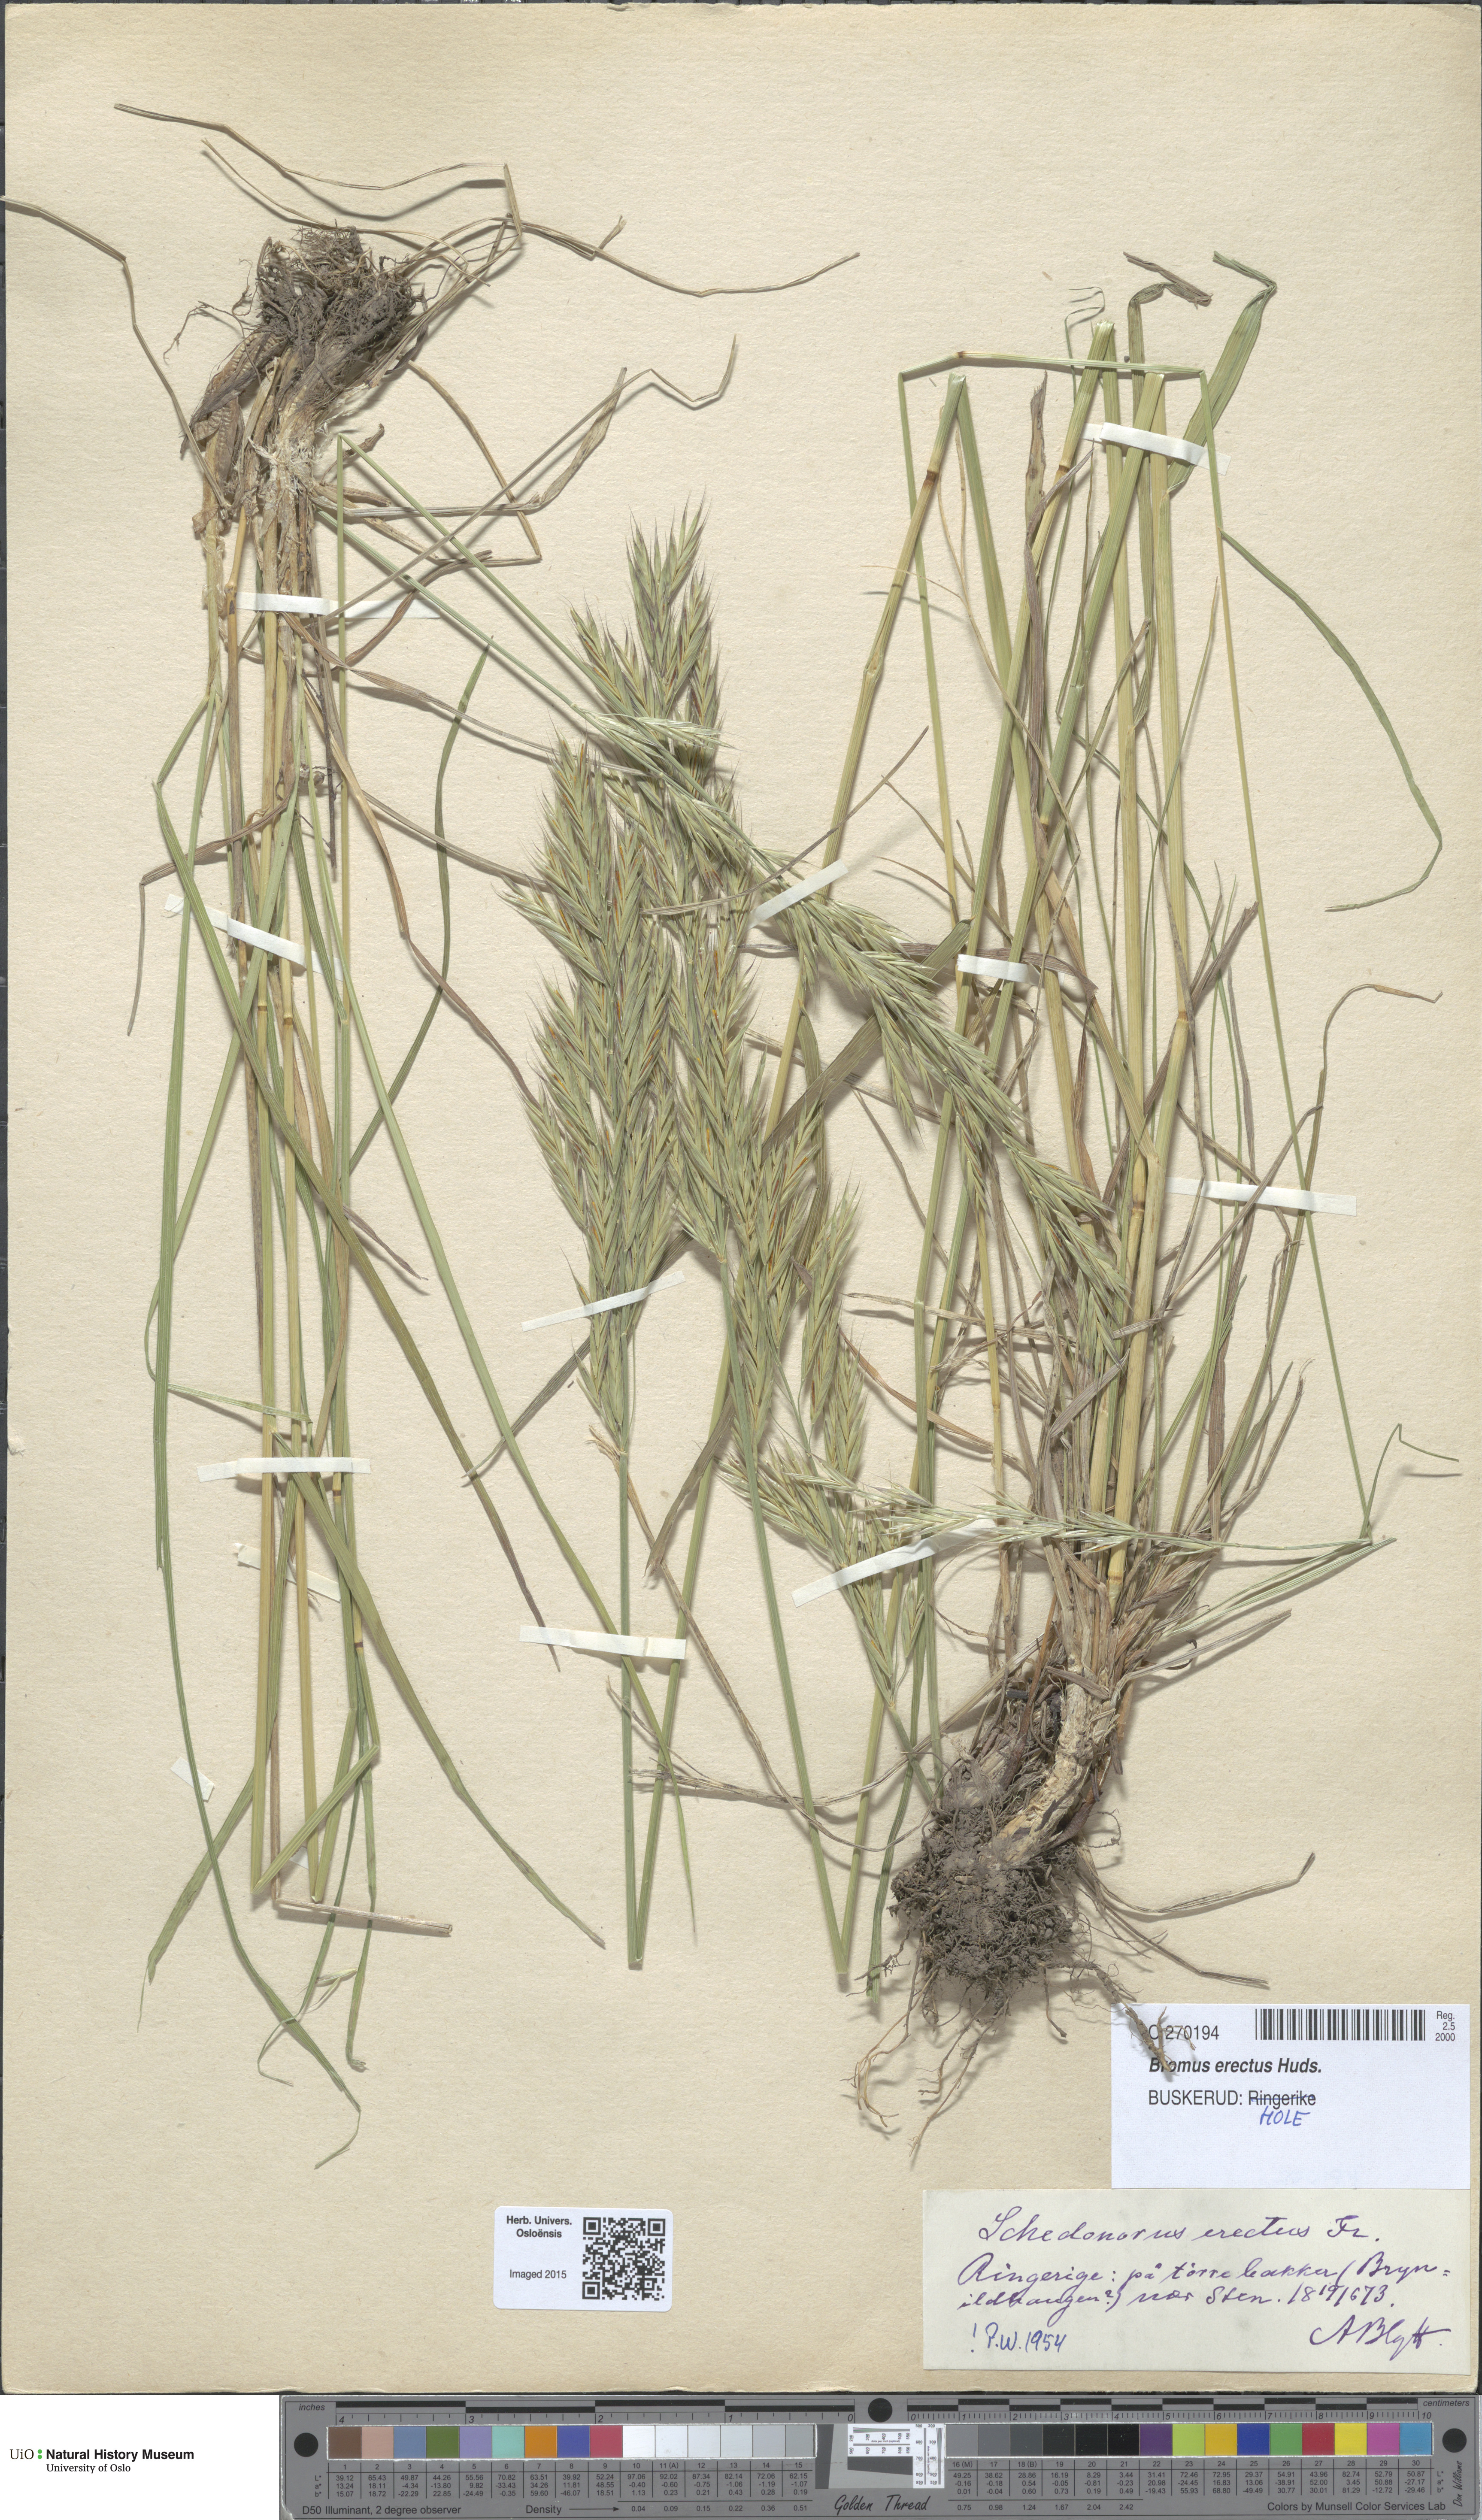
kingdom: Plantae
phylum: Tracheophyta
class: Liliopsida
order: Poales
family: Poaceae
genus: Bromus
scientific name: Bromus erectus
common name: Erect brome
